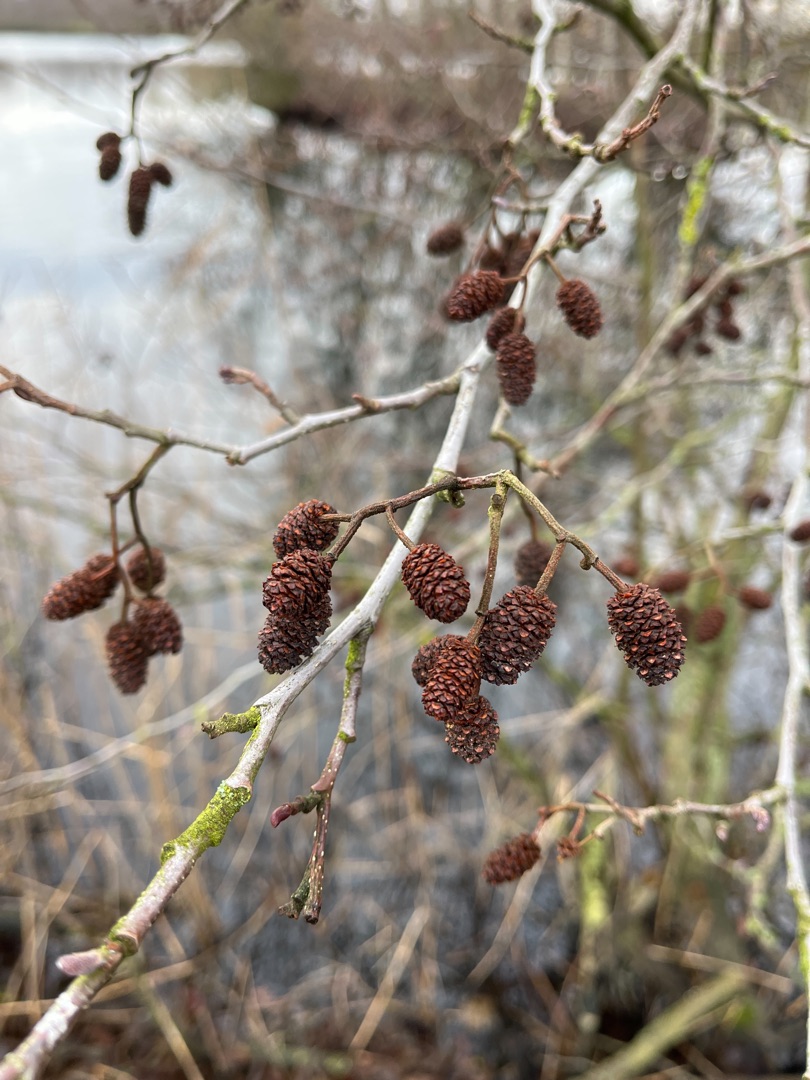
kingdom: Plantae
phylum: Tracheophyta
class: Magnoliopsida
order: Fagales
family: Betulaceae
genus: Alnus
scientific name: Alnus glutinosa
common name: Rød-el
